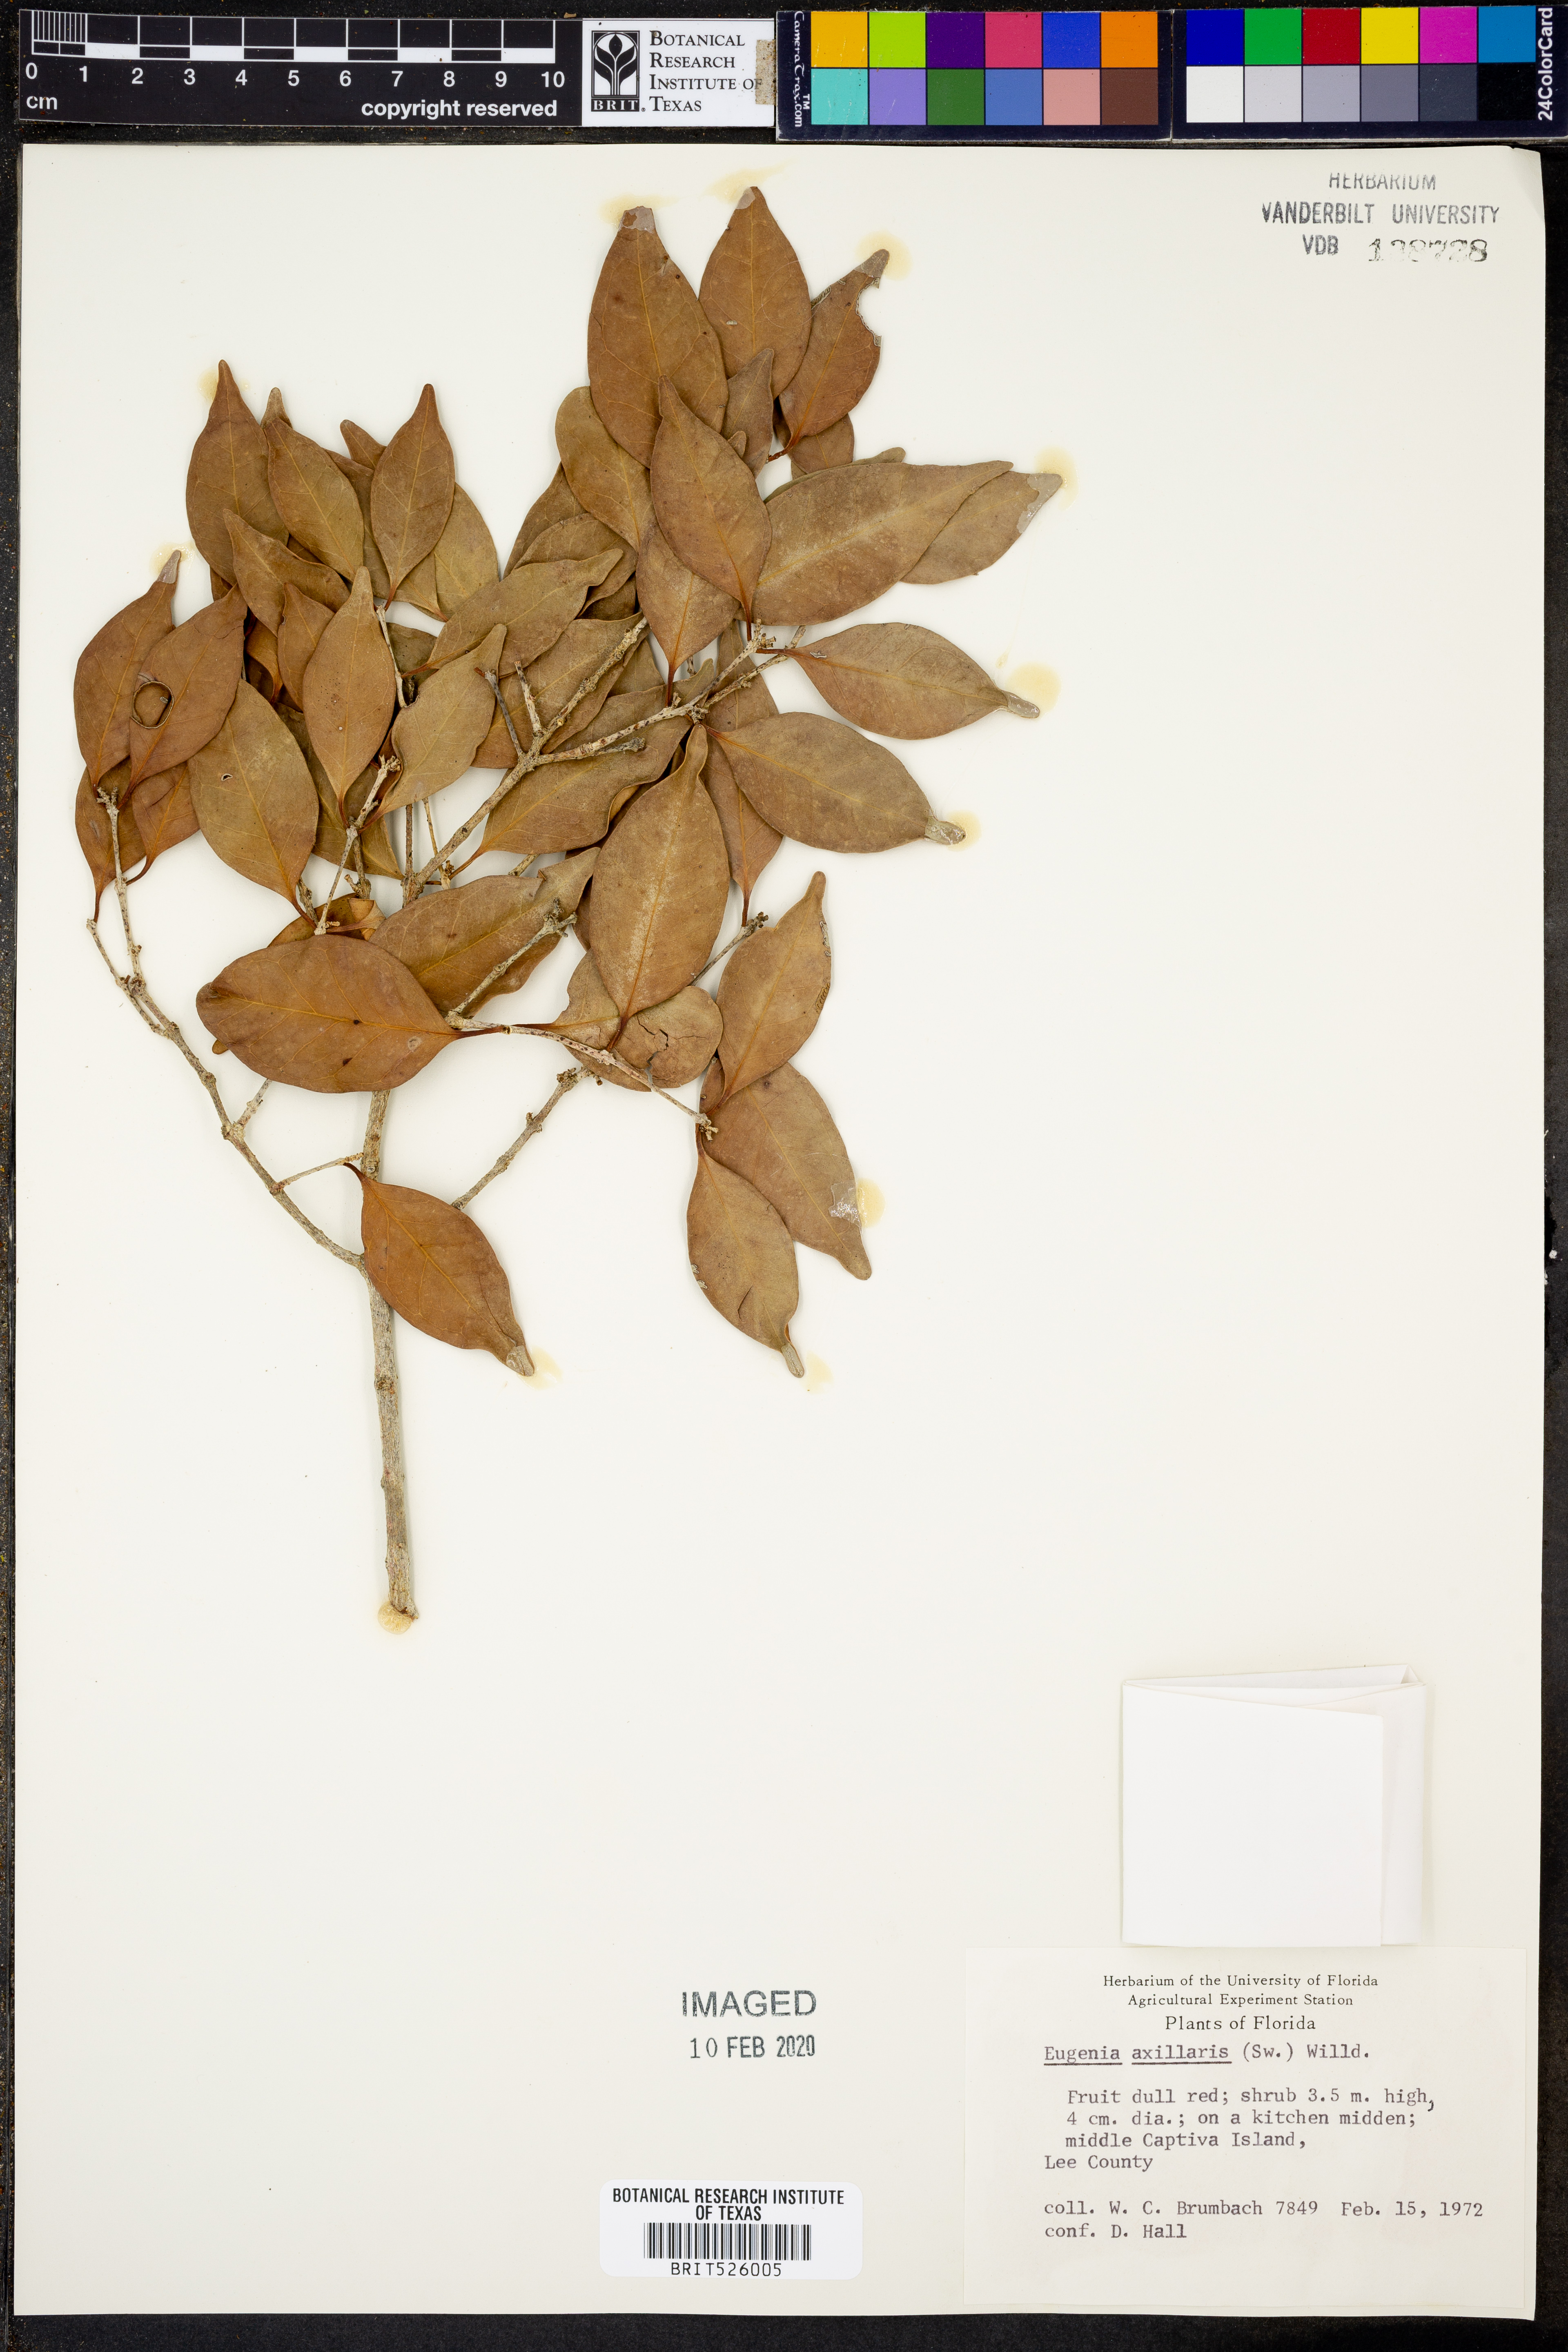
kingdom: Plantae
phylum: Tracheophyta
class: Magnoliopsida
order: Myrtales
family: Myrtaceae
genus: Eugenia
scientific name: Eugenia axillaris
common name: Choaky berry
